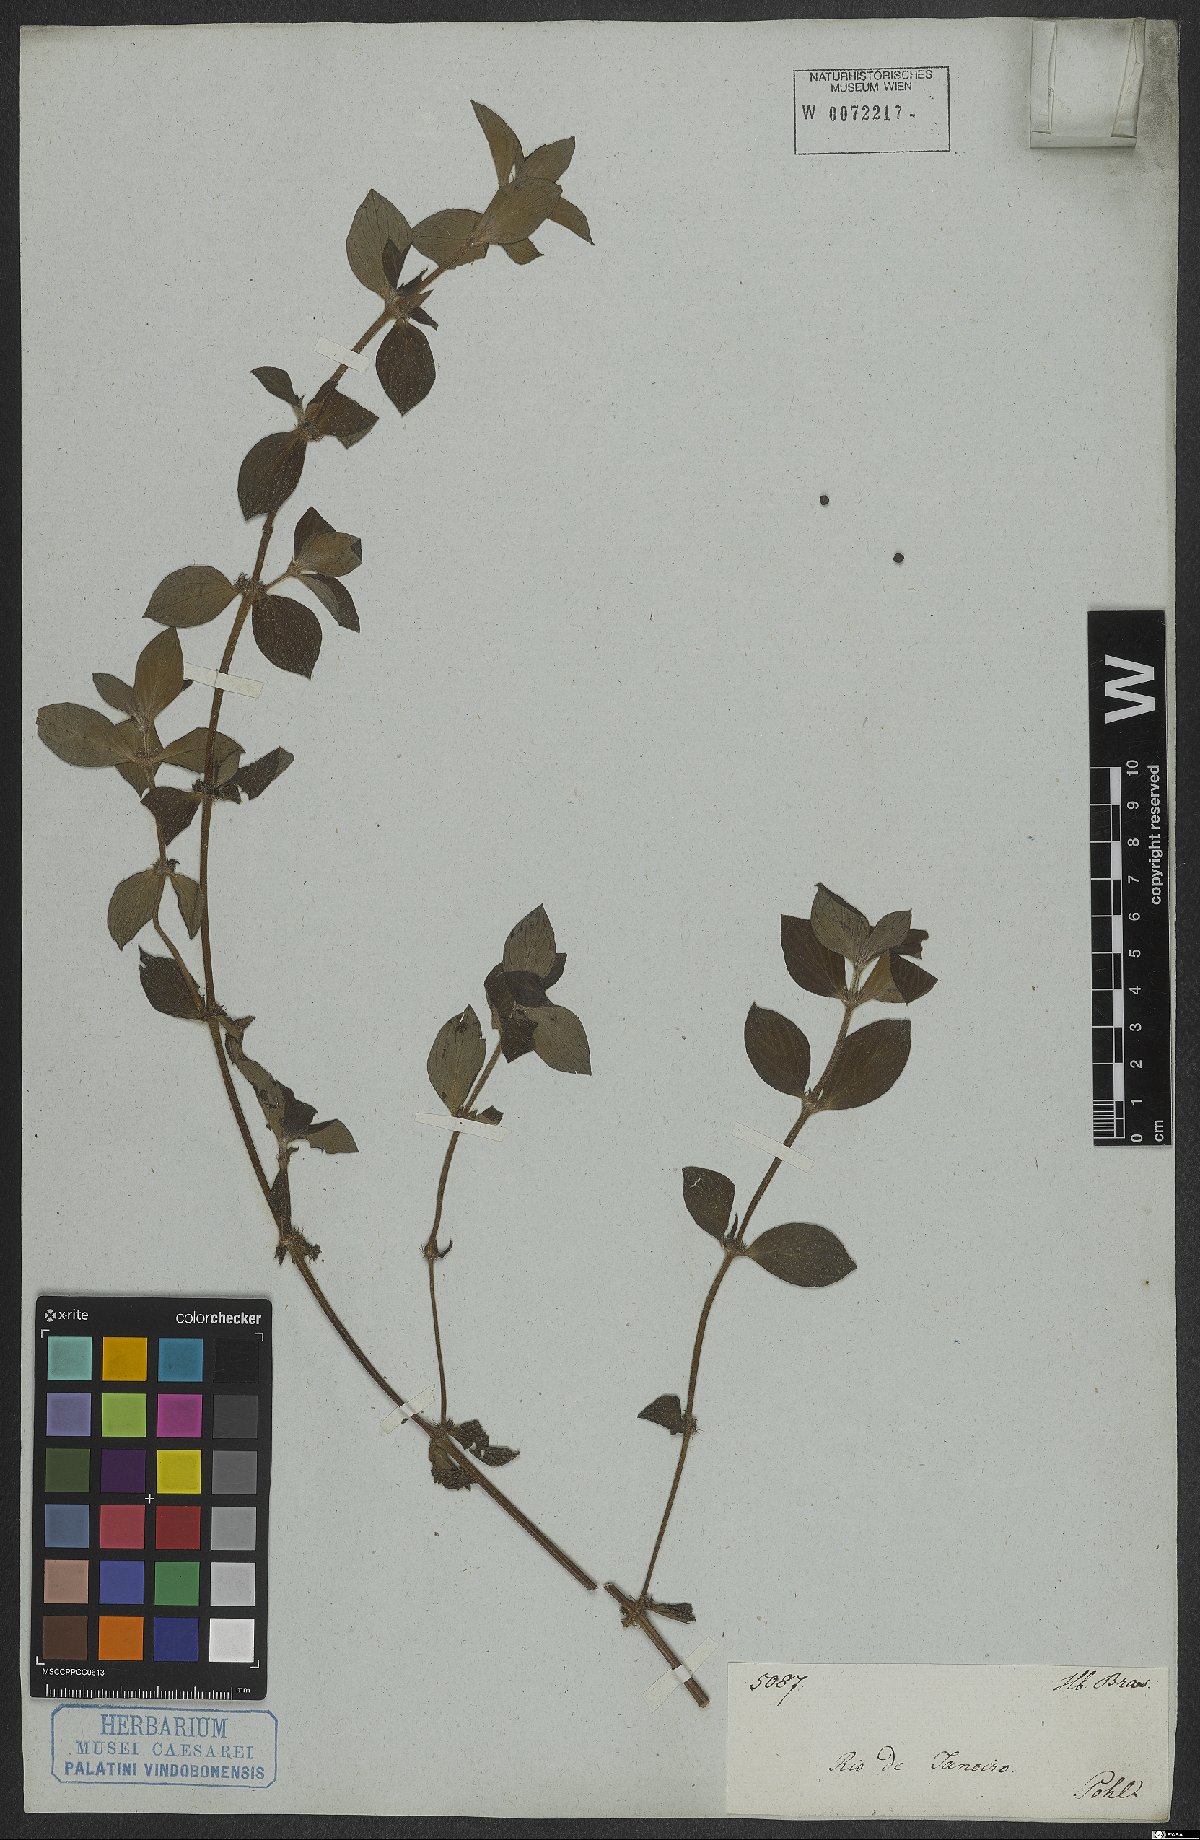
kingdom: Plantae
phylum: Tracheophyta
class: Magnoliopsida
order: Gentianales
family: Rubiaceae
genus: Hexasepalum
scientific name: Hexasepalum radulum
